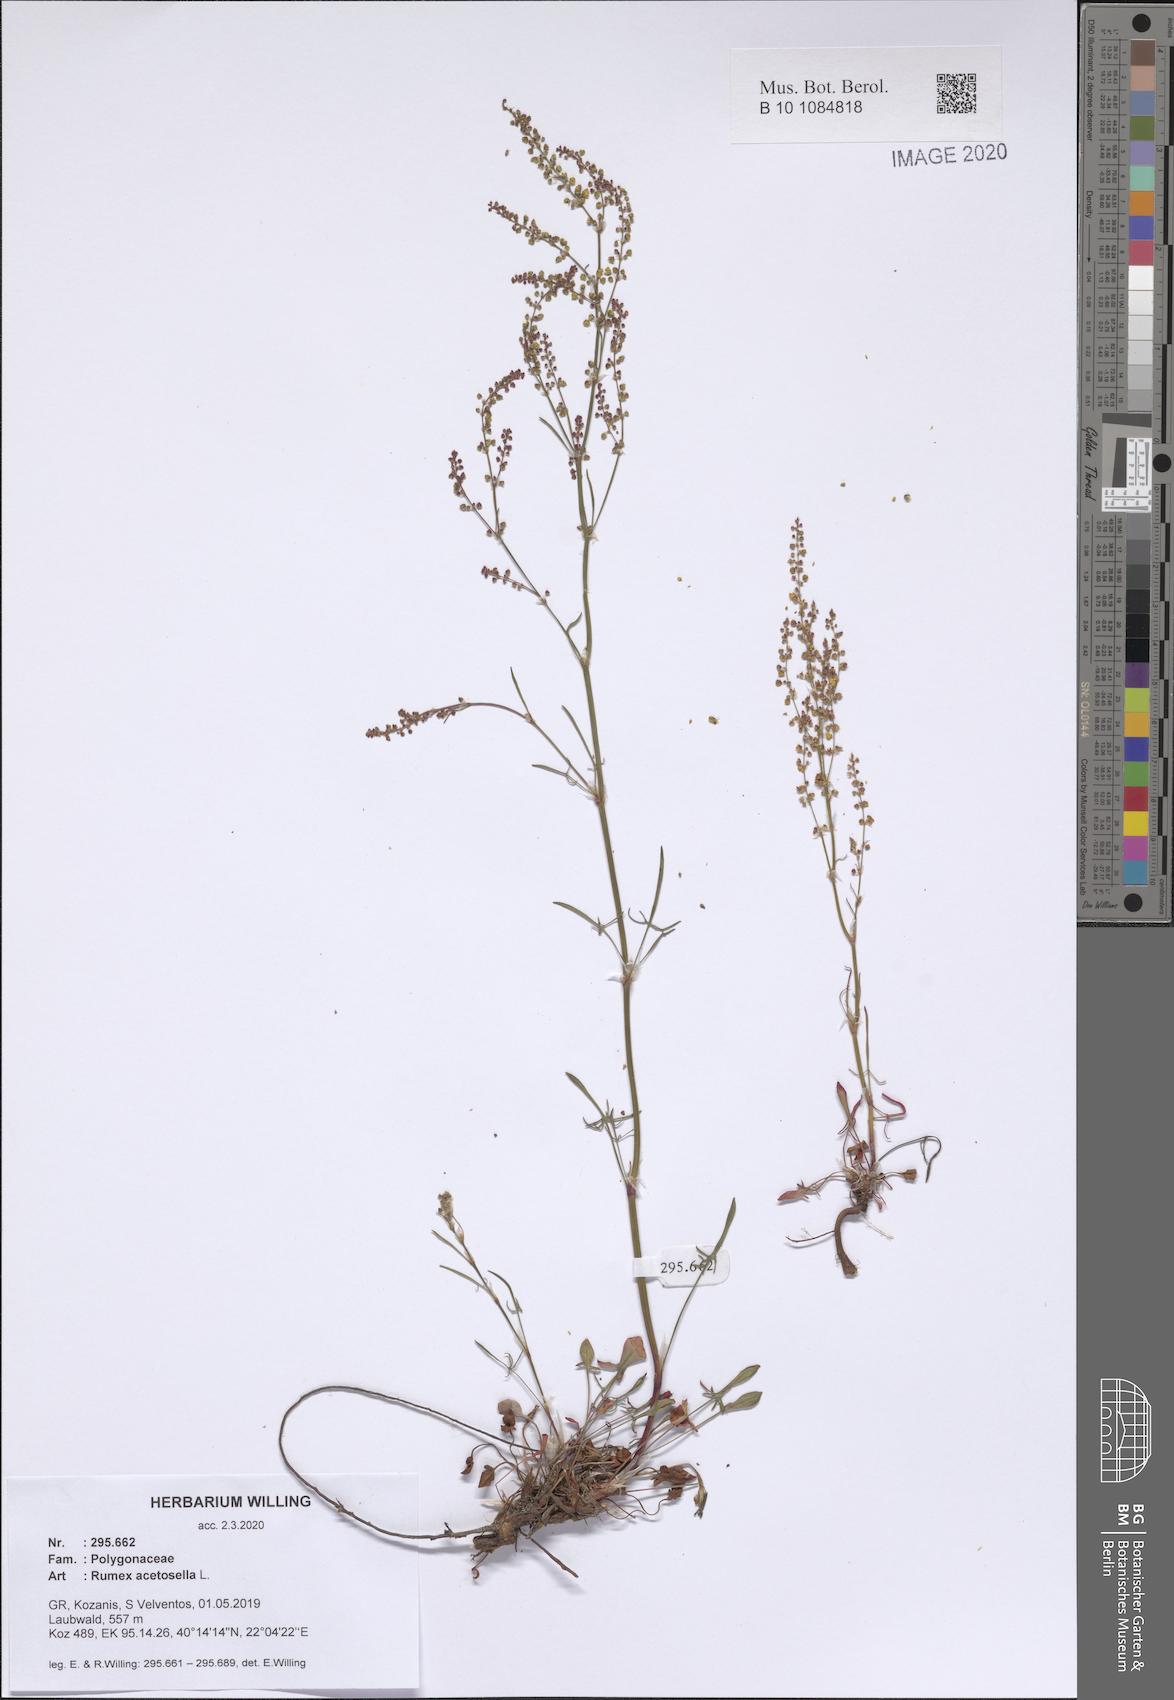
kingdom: Plantae
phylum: Tracheophyta
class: Magnoliopsida
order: Caryophyllales
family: Polygonaceae
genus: Rumex
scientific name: Rumex acetosella
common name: Common sheep sorrel
